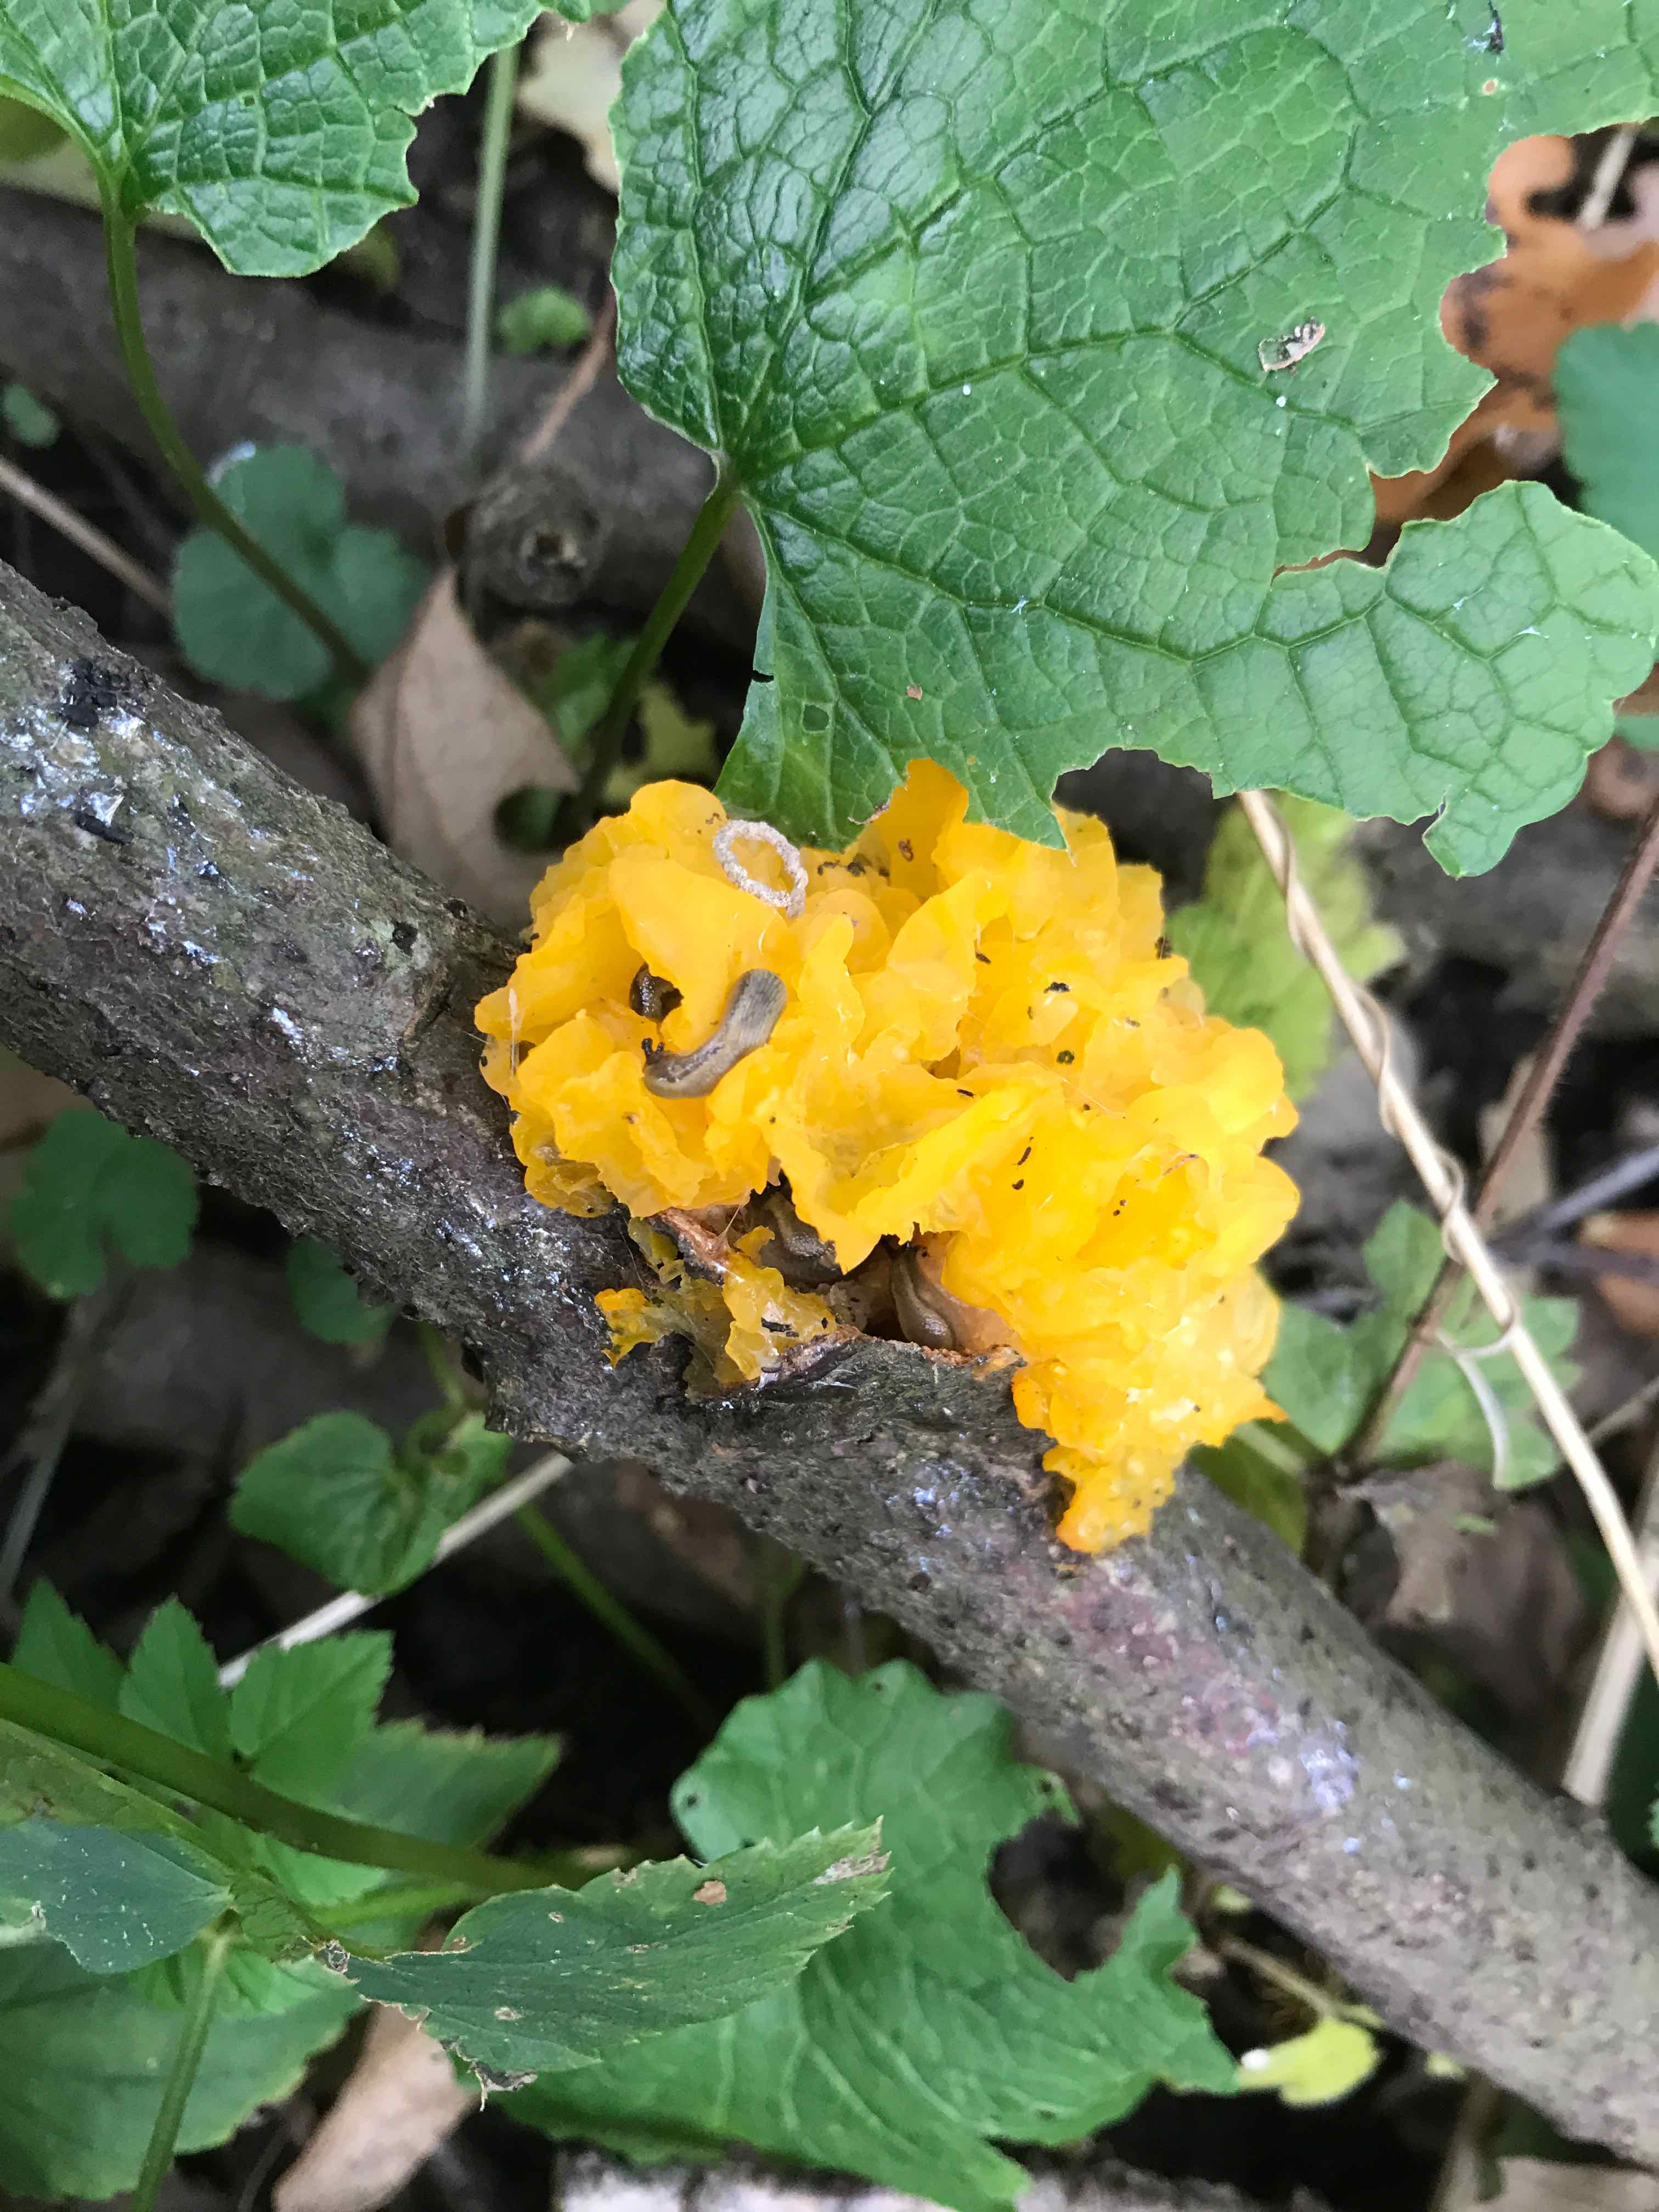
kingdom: Fungi
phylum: Basidiomycota
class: Tremellomycetes
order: Tremellales
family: Tremellaceae
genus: Tremella
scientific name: Tremella mesenterica
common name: gul bævresvamp
